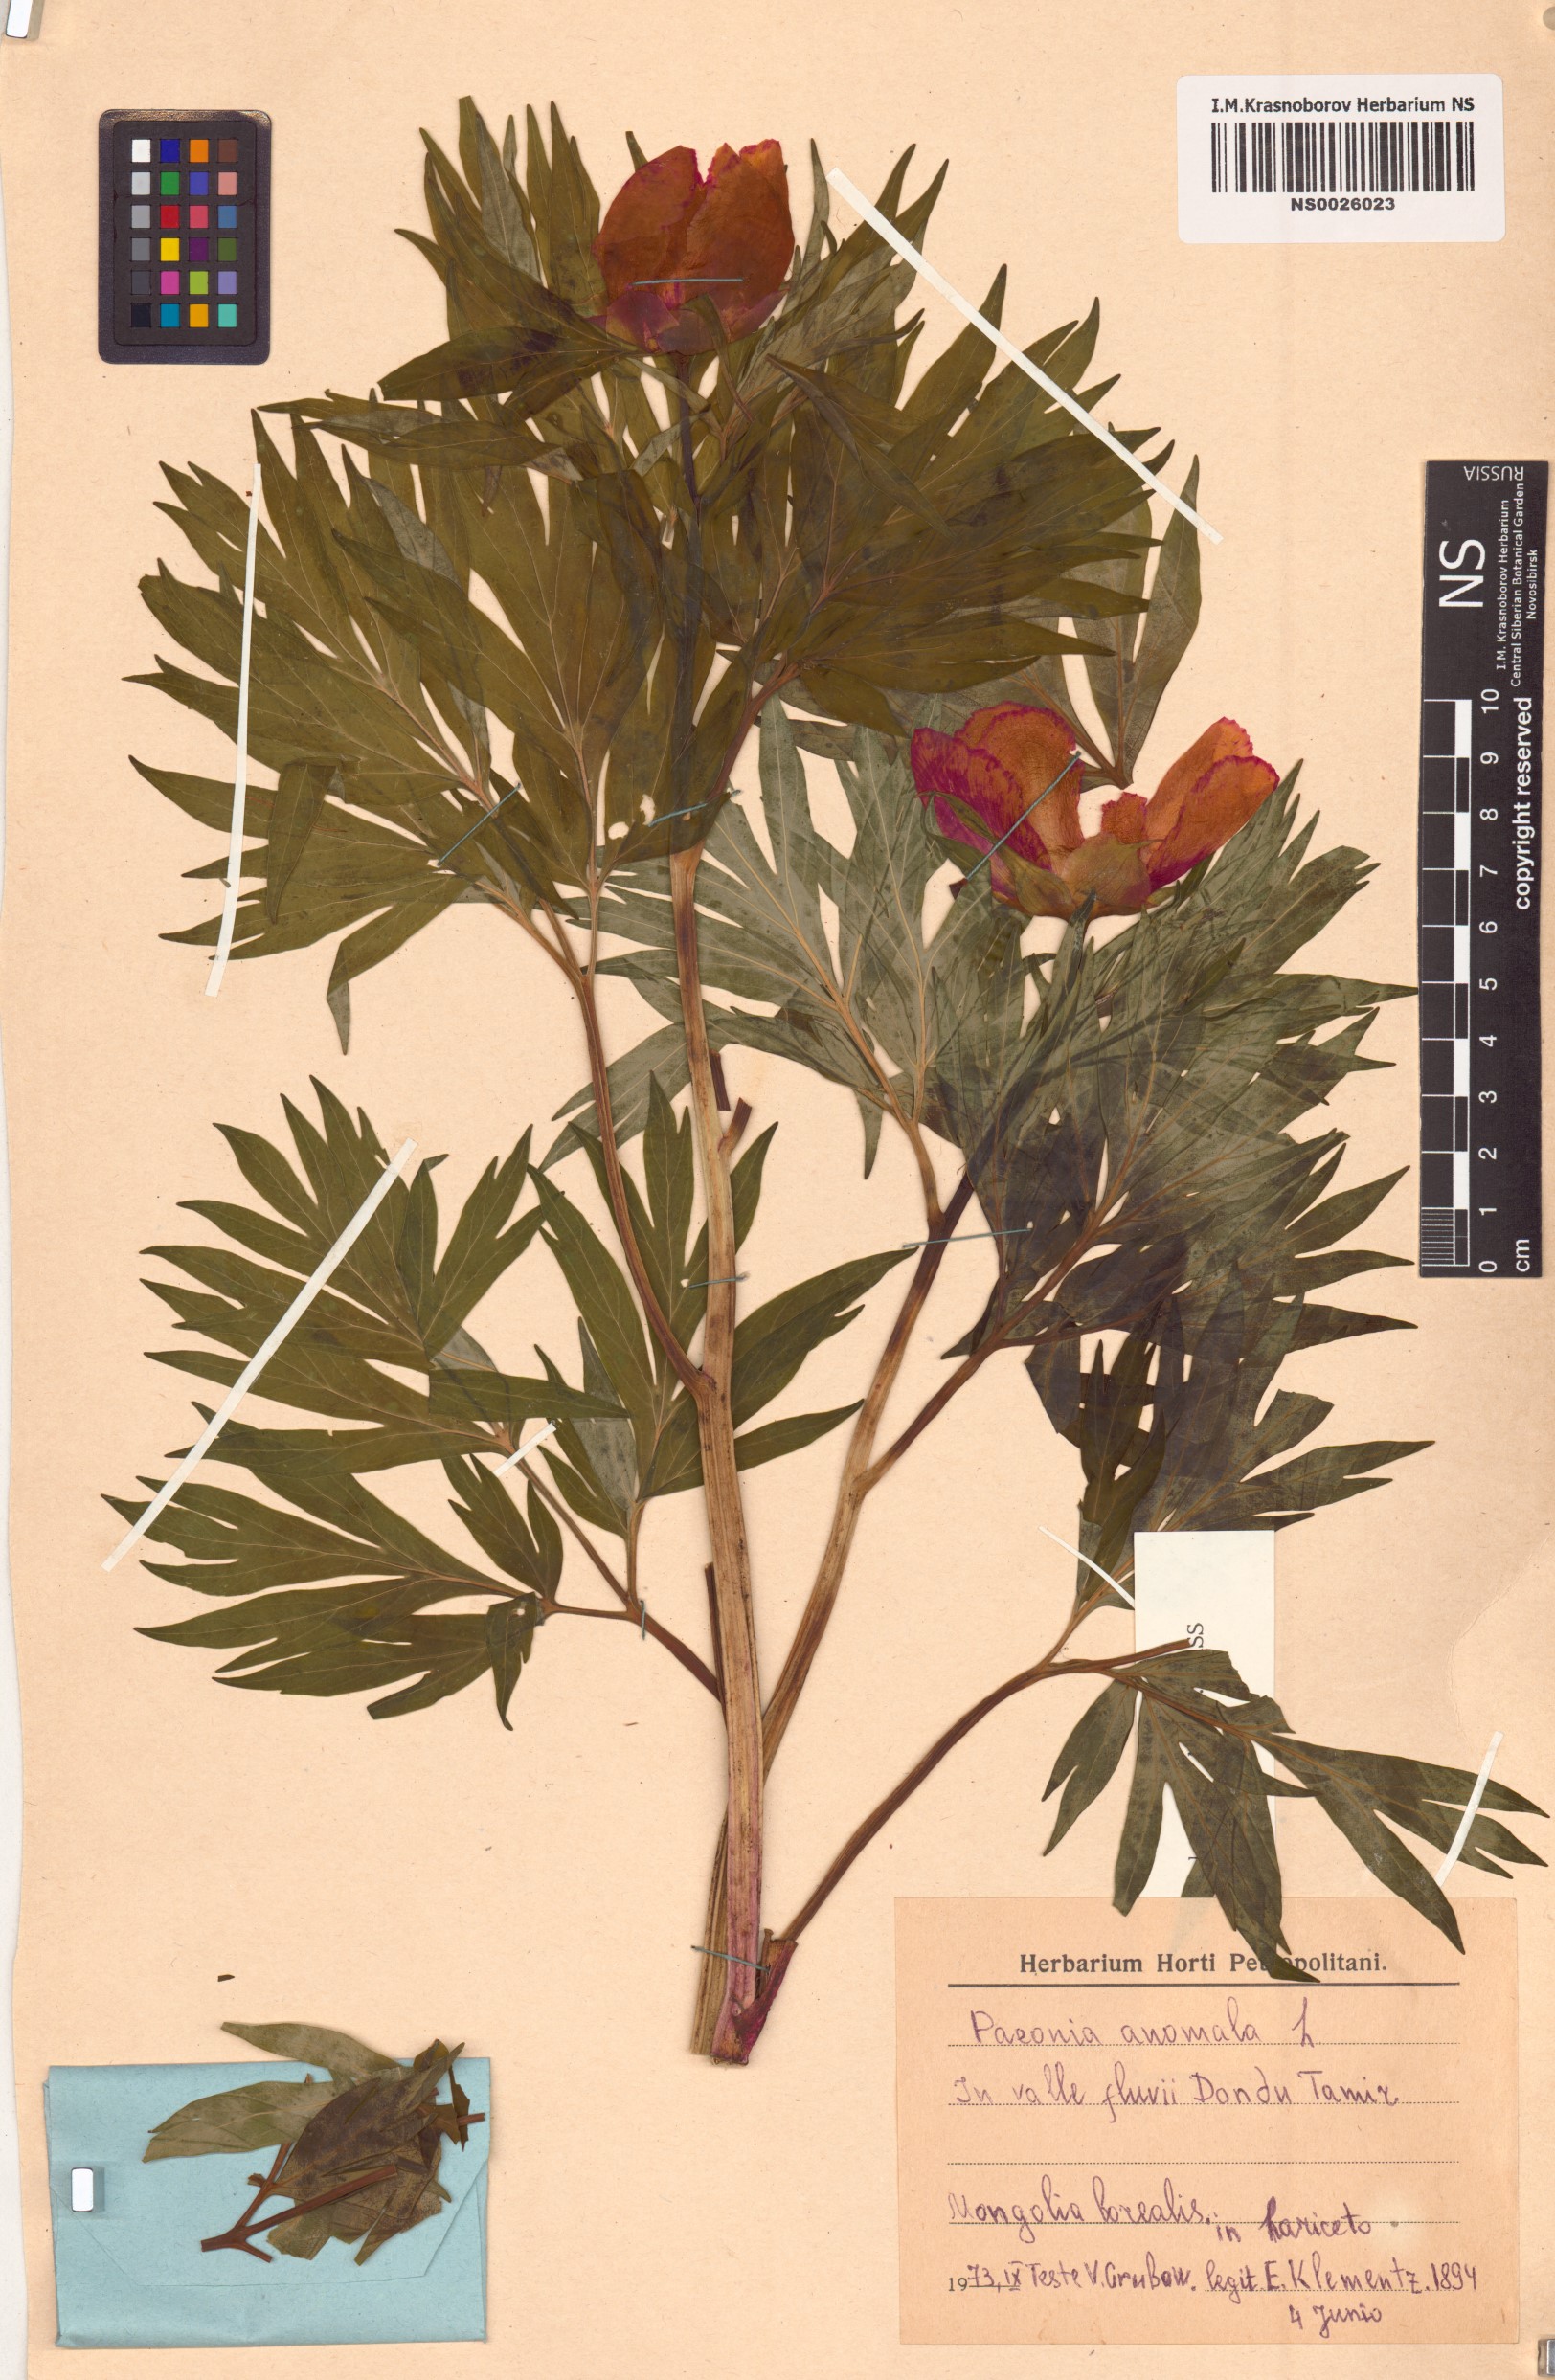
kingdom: Plantae
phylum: Tracheophyta
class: Magnoliopsida
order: Saxifragales
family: Paeoniaceae
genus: Paeonia
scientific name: Paeonia anomala
